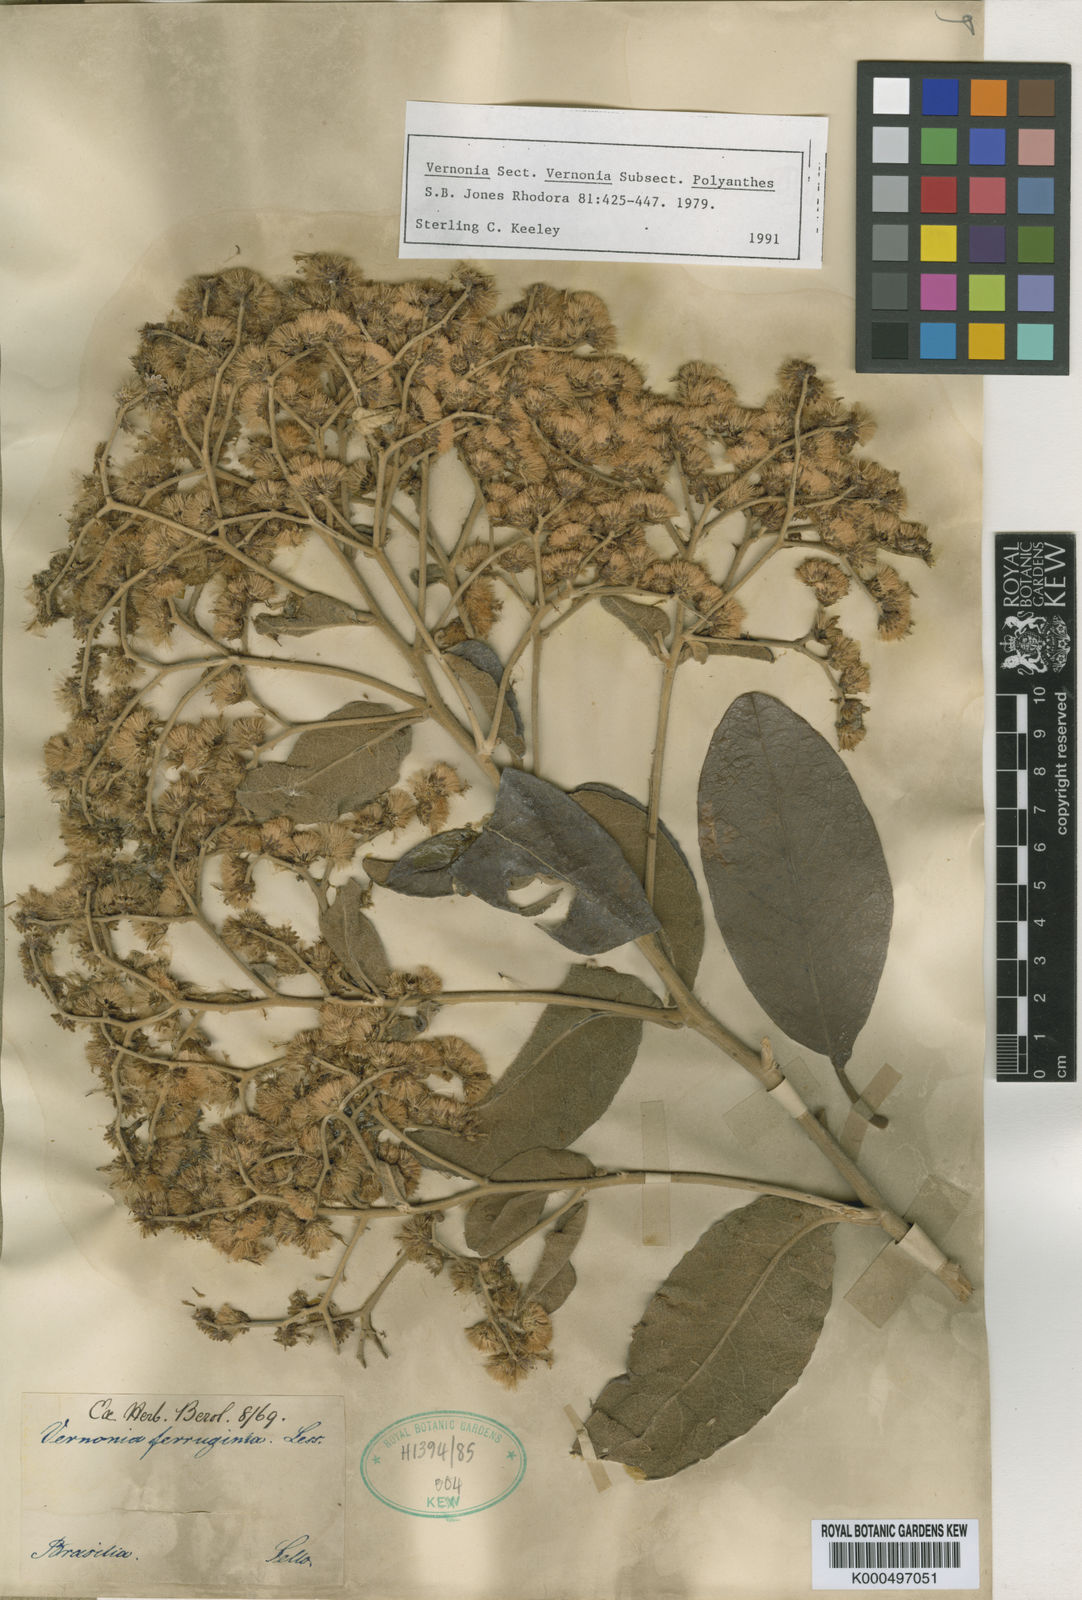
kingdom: Plantae
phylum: Tracheophyta
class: Magnoliopsida
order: Asterales
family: Asteraceae
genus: Vernonanthura
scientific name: Vernonanthura ferruginea
